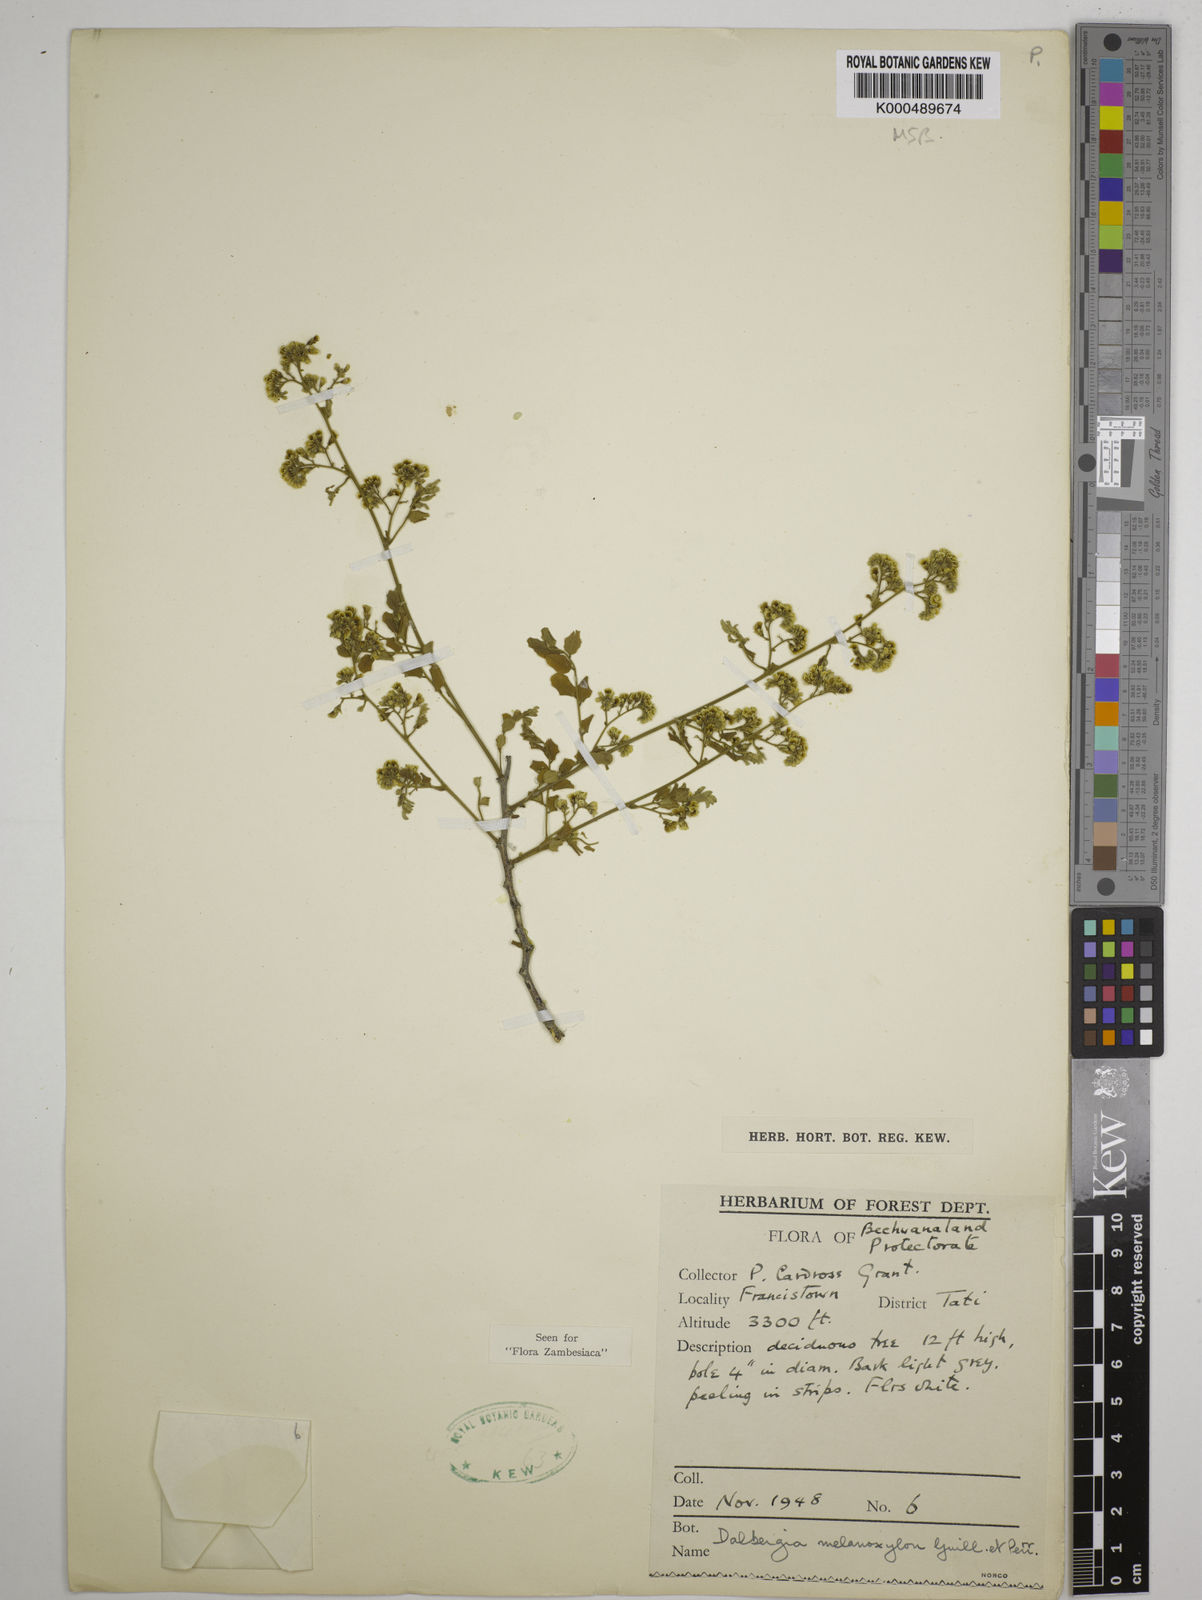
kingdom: Plantae
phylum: Tracheophyta
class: Magnoliopsida
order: Fabales
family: Fabaceae
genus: Dalbergia
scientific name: Dalbergia melanoxylon
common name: African blackwood
